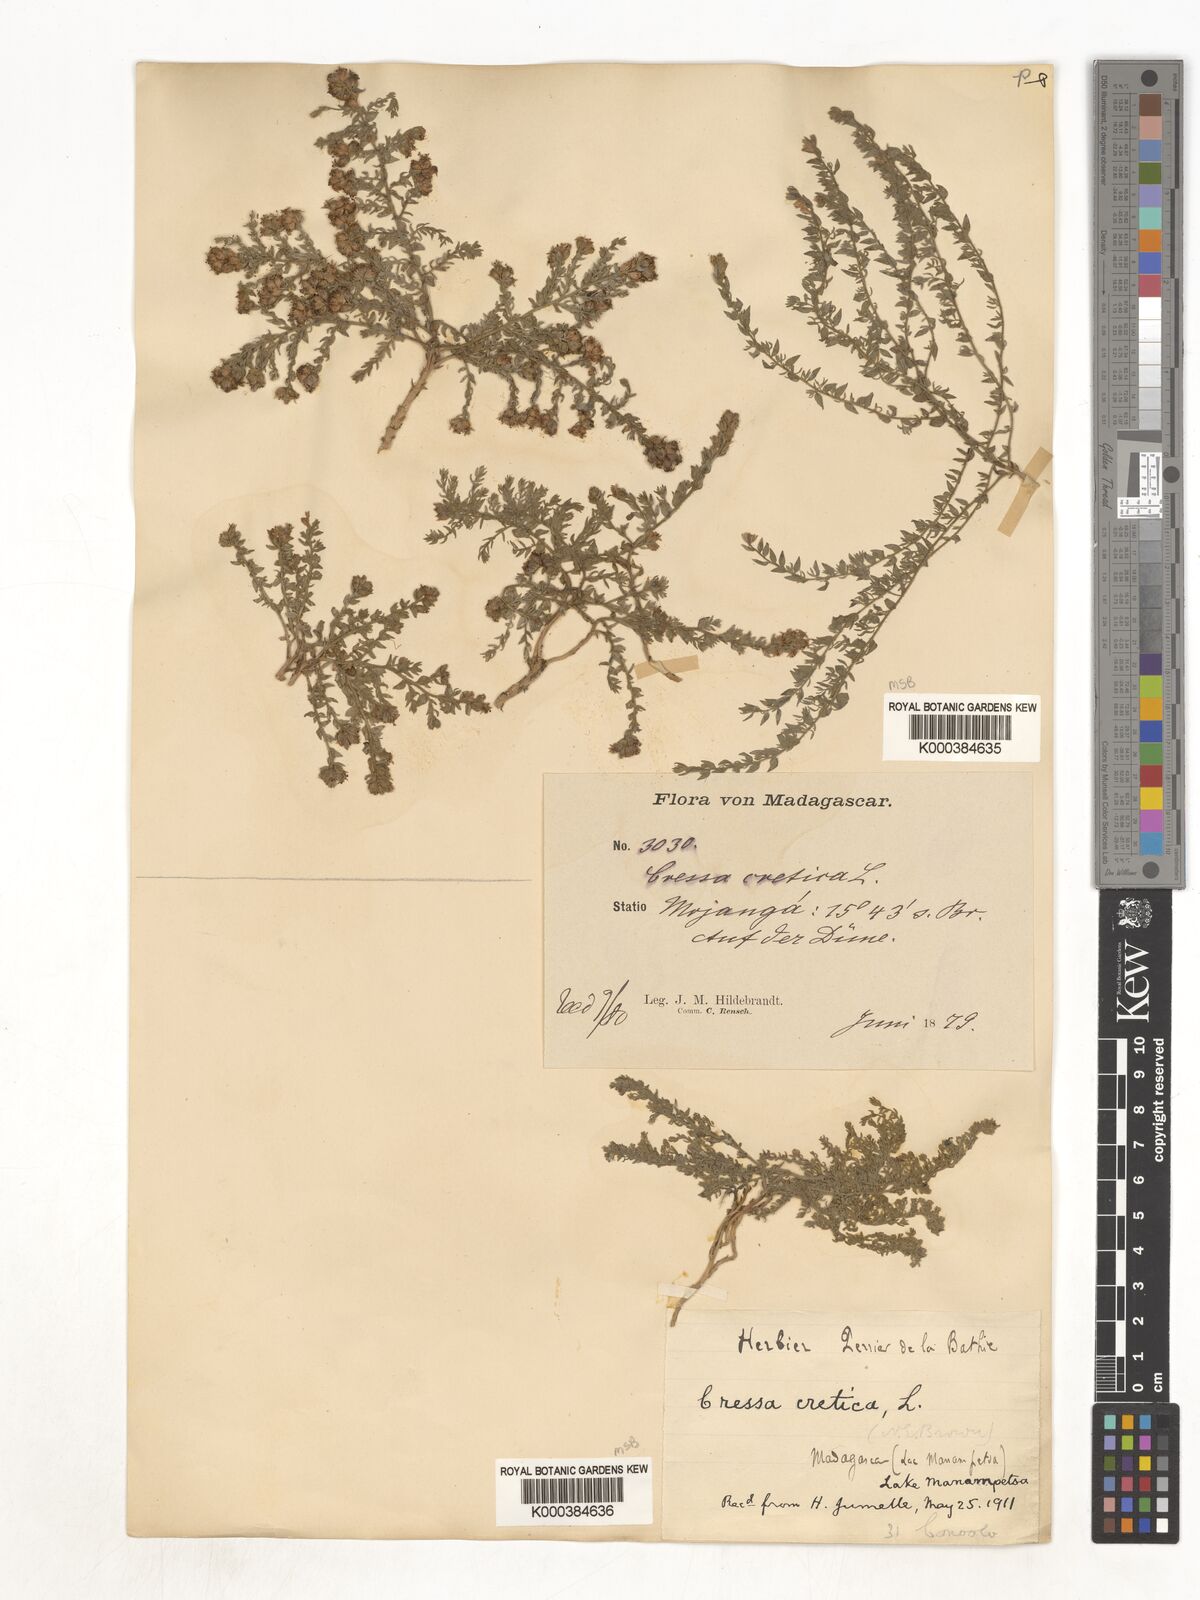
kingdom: Plantae
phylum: Tracheophyta
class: Magnoliopsida
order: Solanales
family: Convolvulaceae
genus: Cressa
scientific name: Cressa cretica
